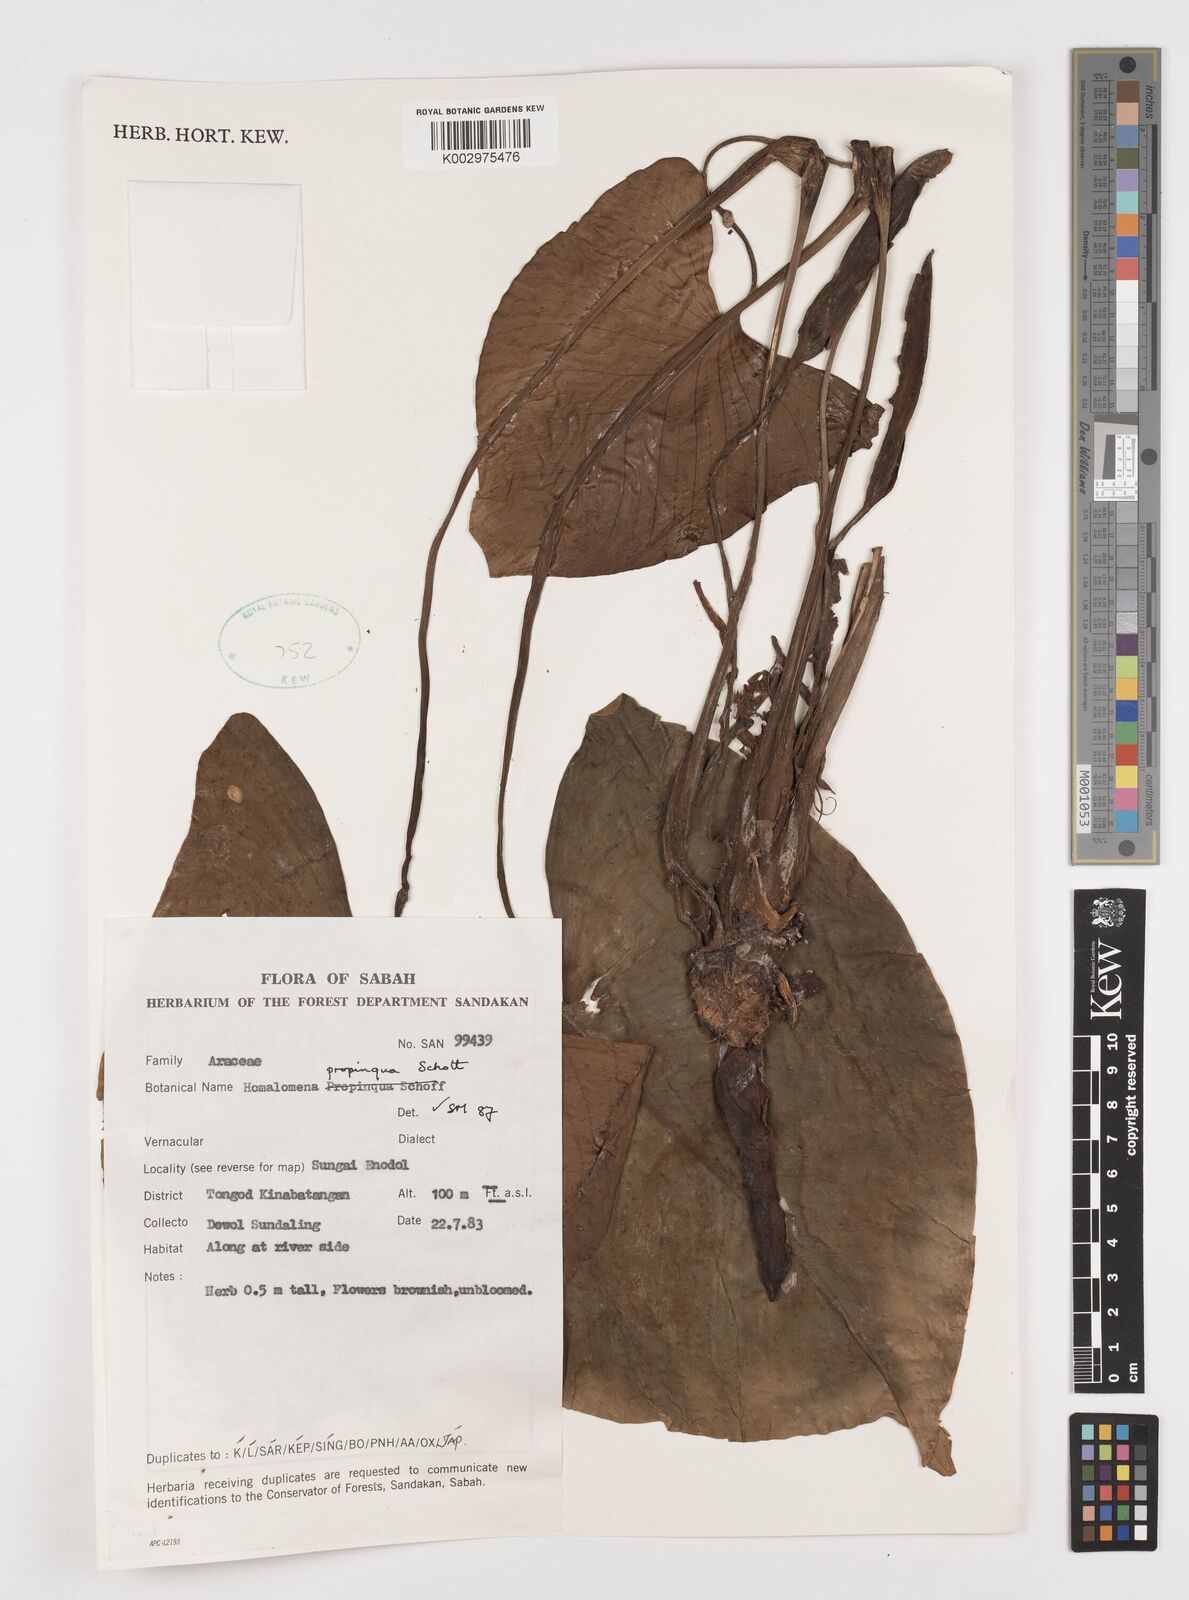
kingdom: Plantae
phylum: Tracheophyta
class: Liliopsida
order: Alismatales
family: Araceae
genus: Homalomena
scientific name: Homalomena humilis
